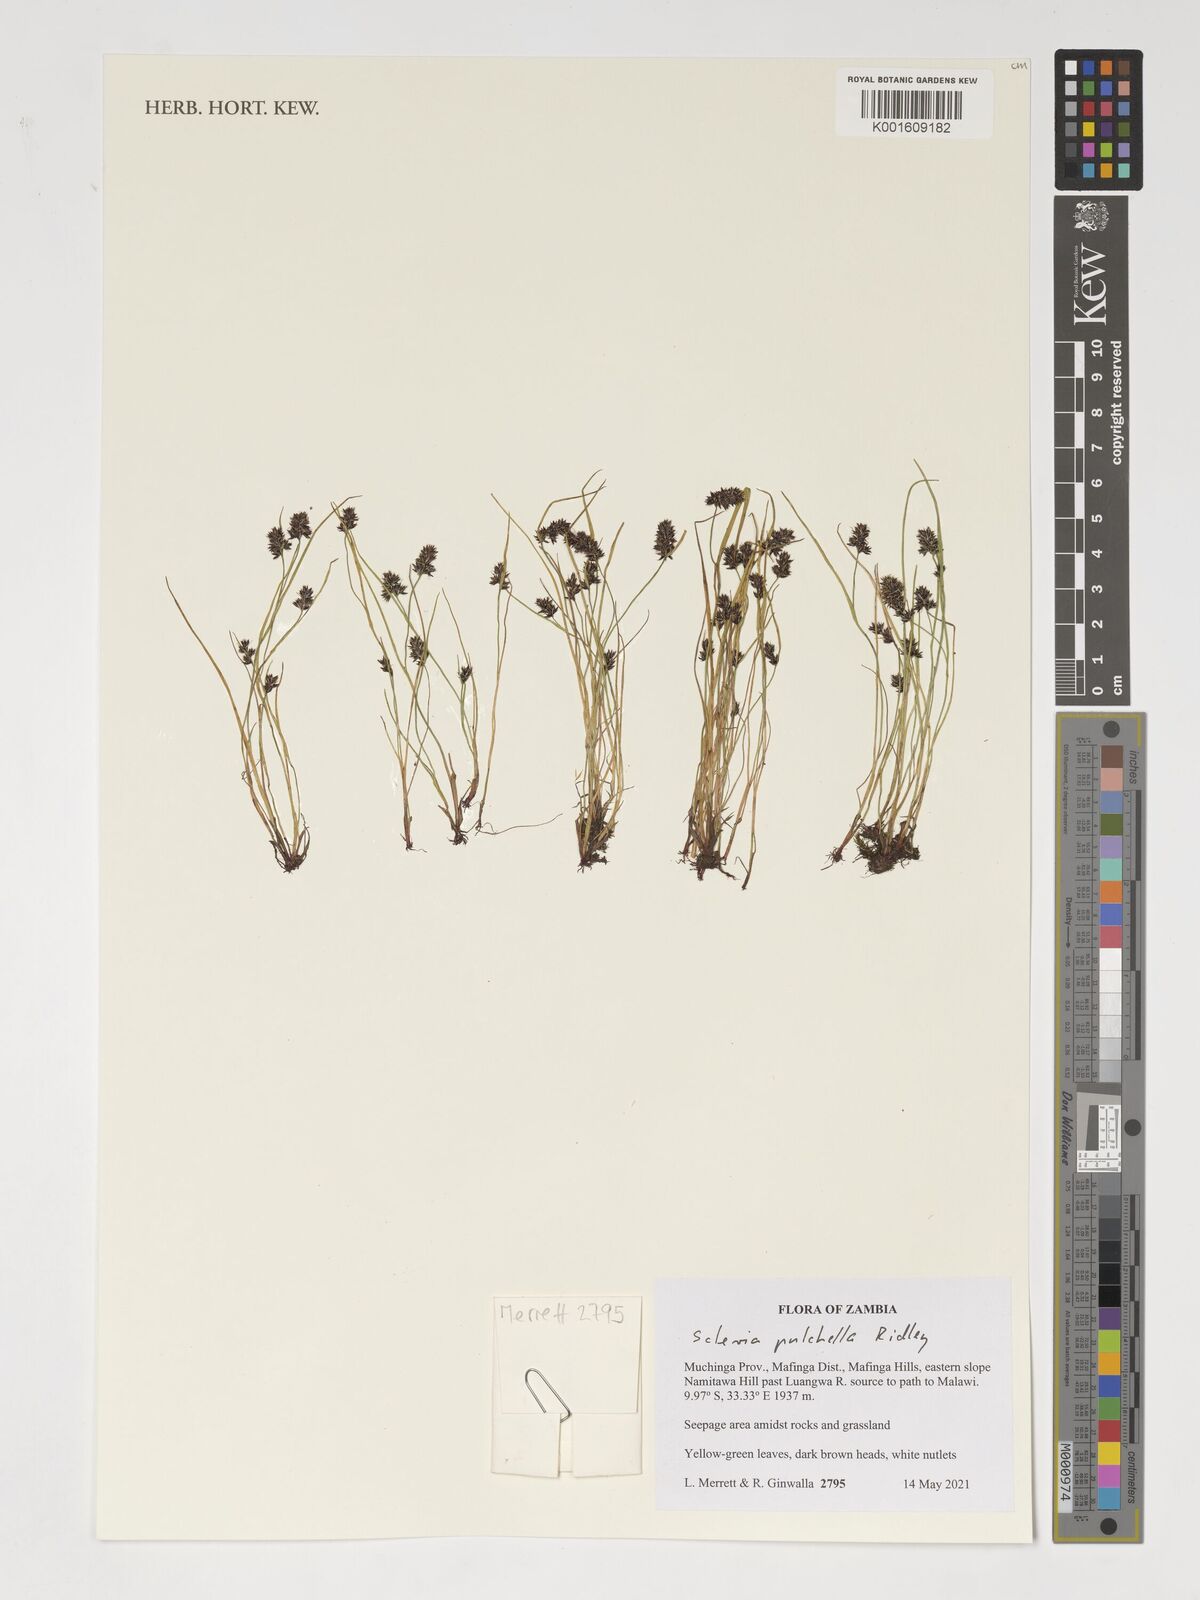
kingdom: Plantae
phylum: Tracheophyta
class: Liliopsida
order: Poales
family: Cyperaceae
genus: Scleria
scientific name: Scleria pulchella
